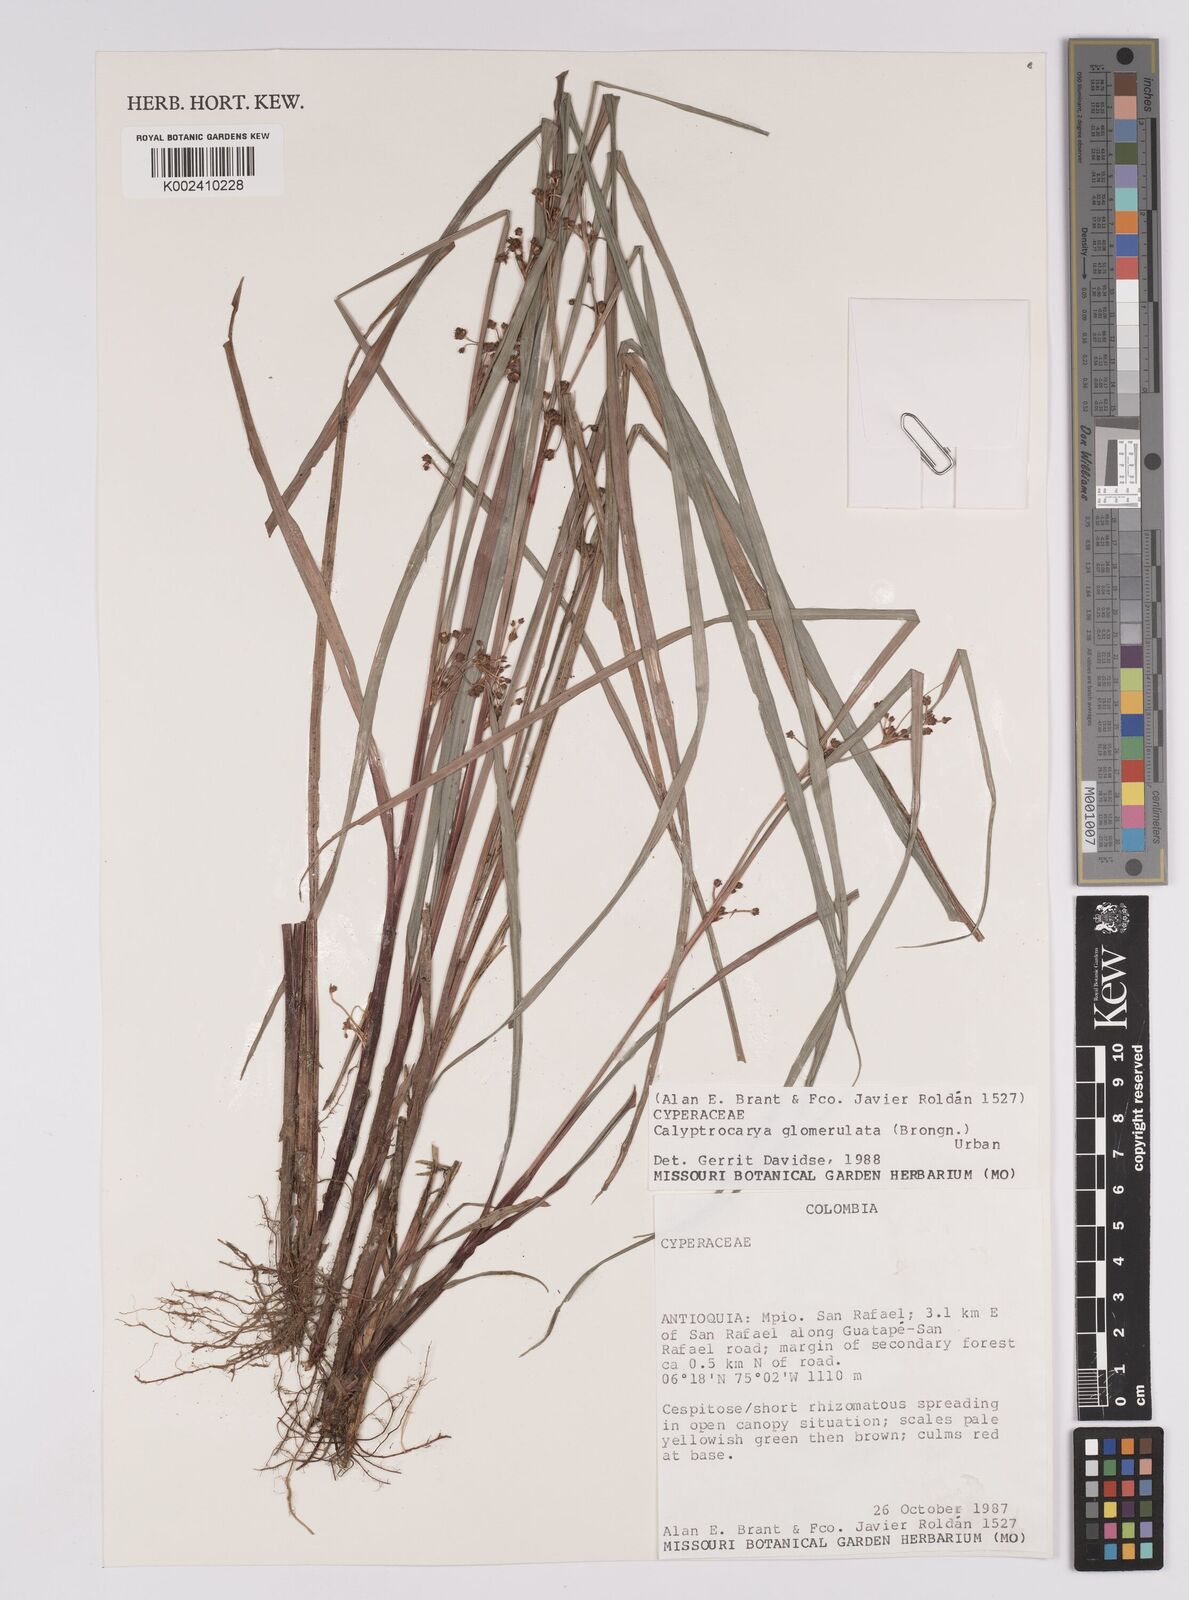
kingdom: Plantae
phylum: Tracheophyta
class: Liliopsida
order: Poales
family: Cyperaceae
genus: Calyptrocarya
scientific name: Calyptrocarya glomerulata
